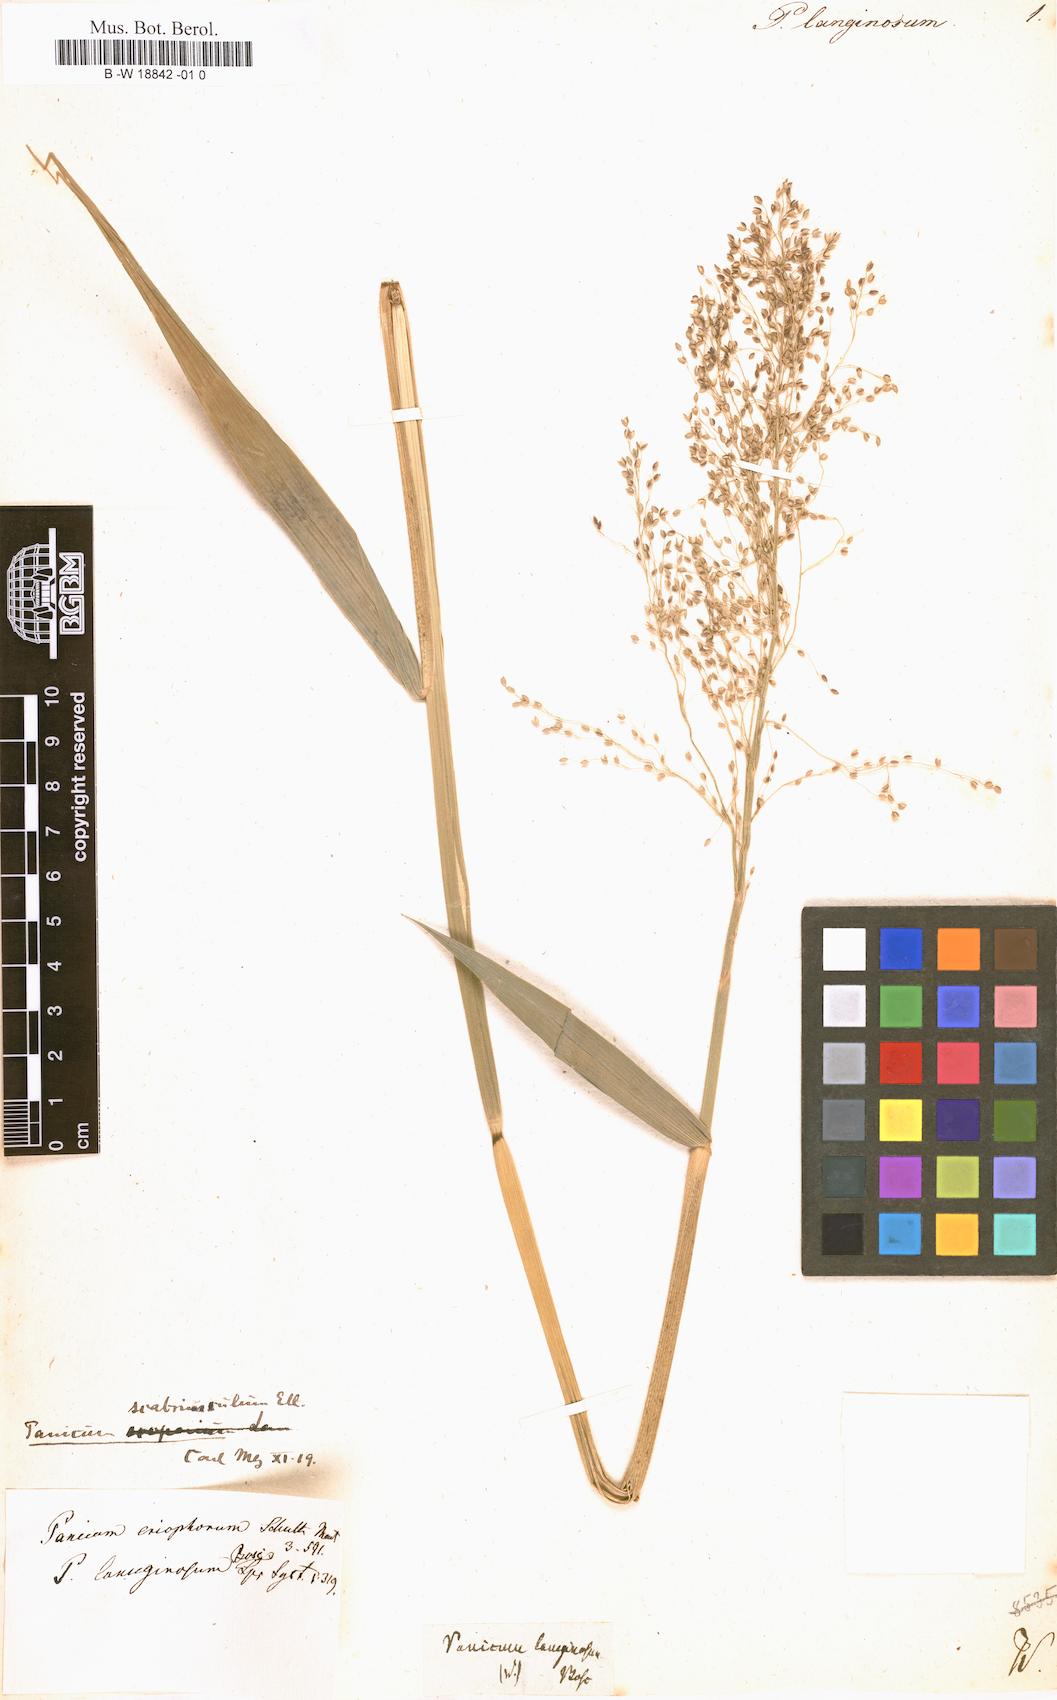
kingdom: Plantae
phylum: Tracheophyta
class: Liliopsida
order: Poales
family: Poaceae
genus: Dichanthelium
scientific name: Dichanthelium lanuginosum
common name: Woolly panicgrass
